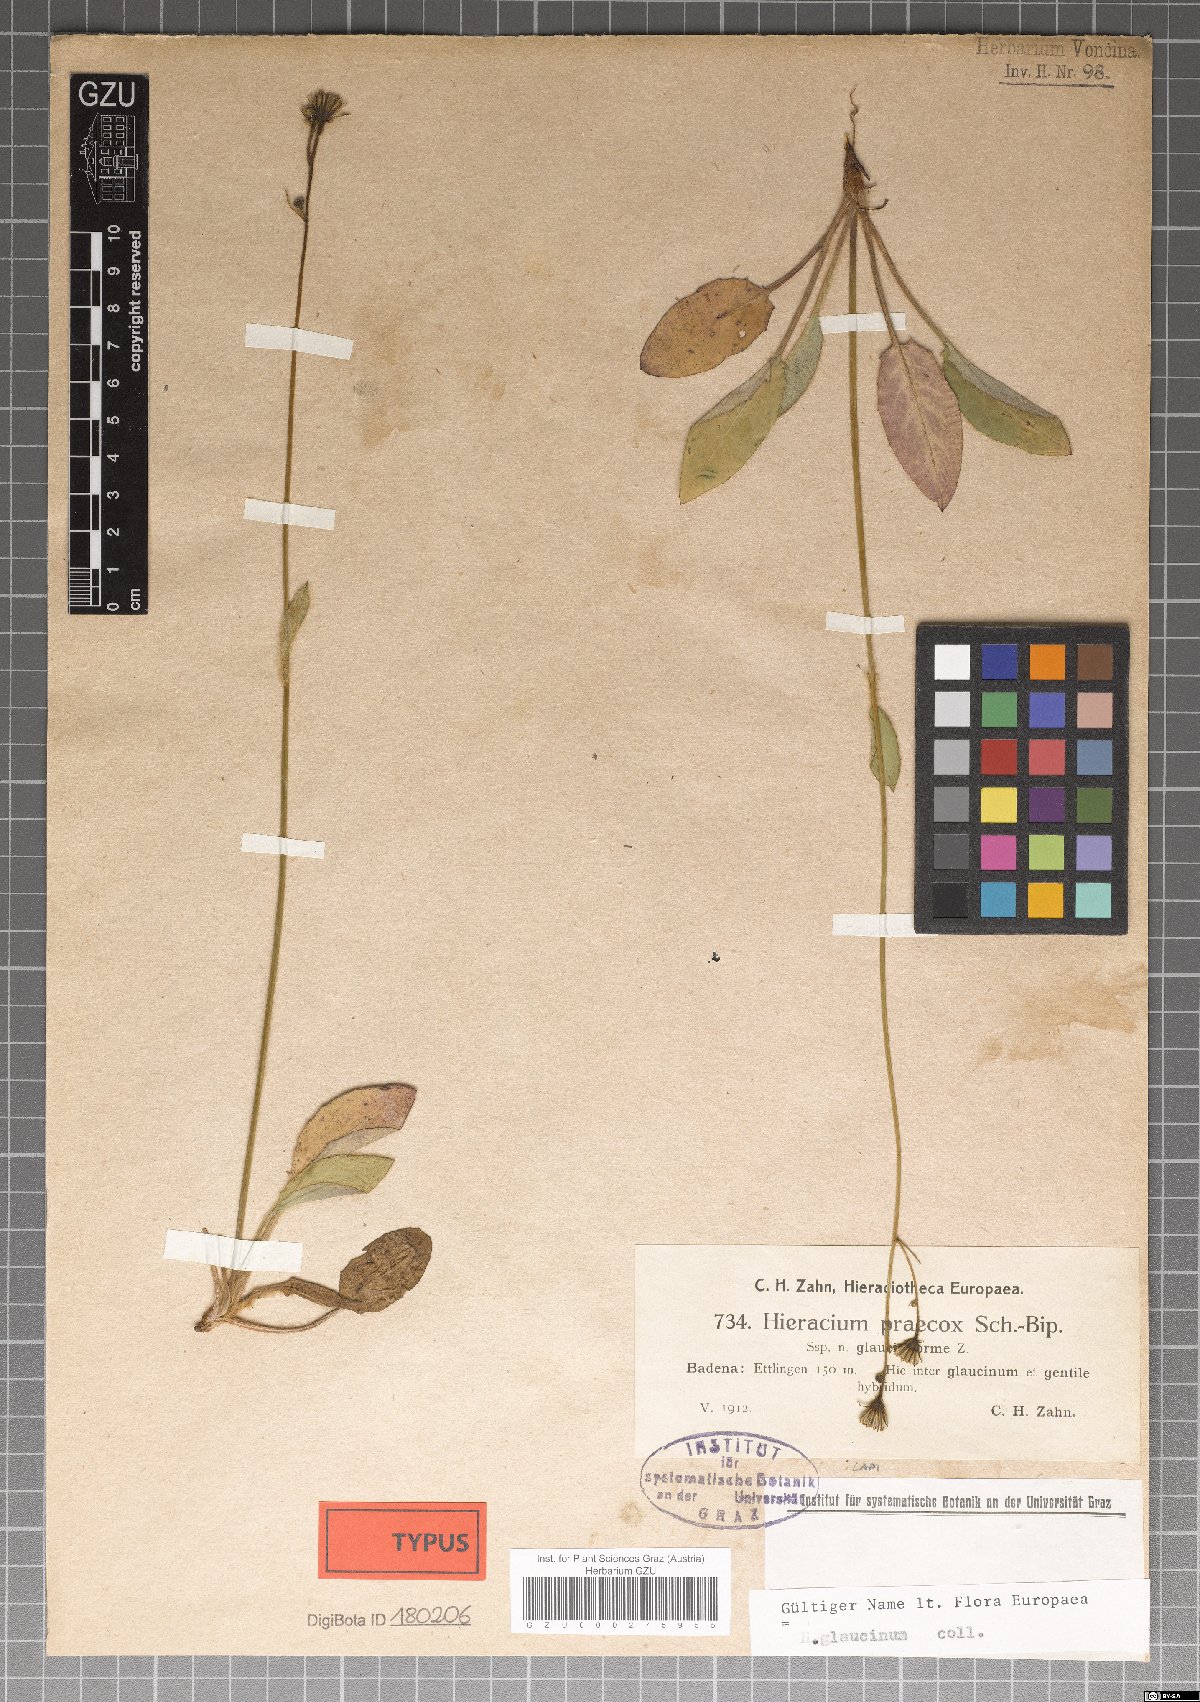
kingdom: Plantae
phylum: Tracheophyta
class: Magnoliopsida
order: Asterales
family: Asteraceae
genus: Hieracium
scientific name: Hieracium glaucinum
